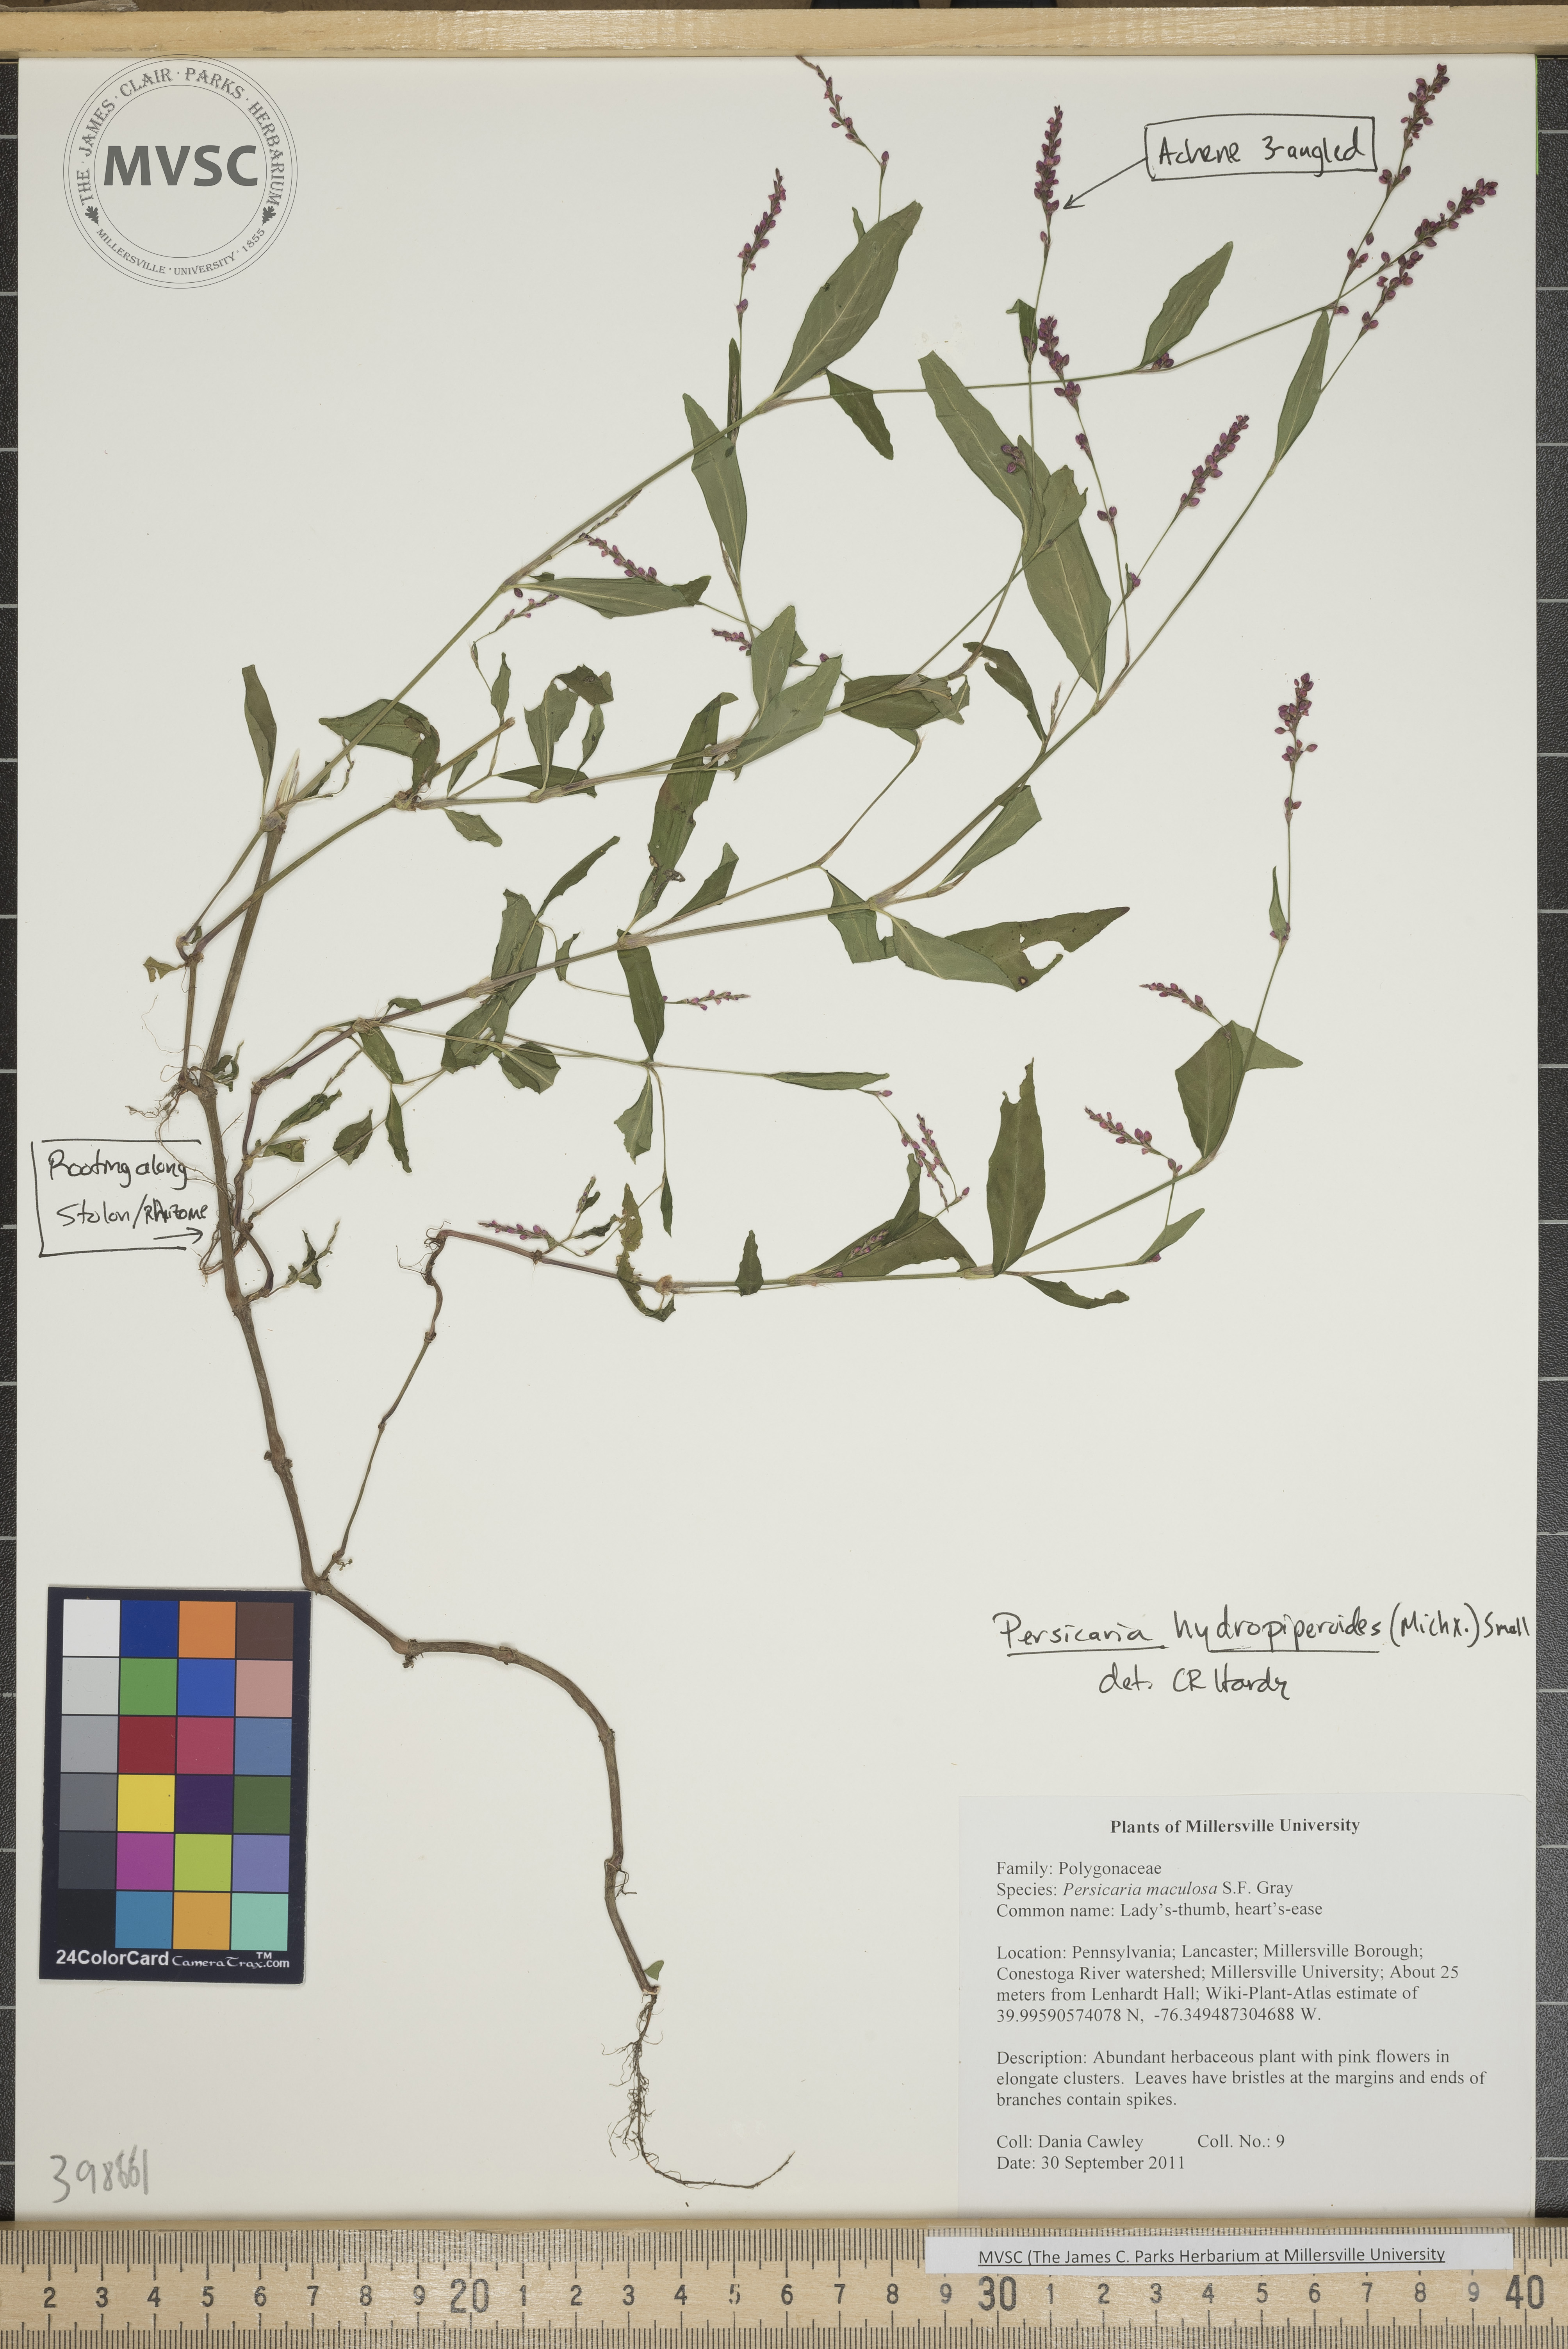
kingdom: Plantae
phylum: Tracheophyta
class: Magnoliopsida
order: Caryophyllales
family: Polygonaceae
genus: Persicaria
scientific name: Persicaria hydropiperoides
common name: Mild water-pepper
